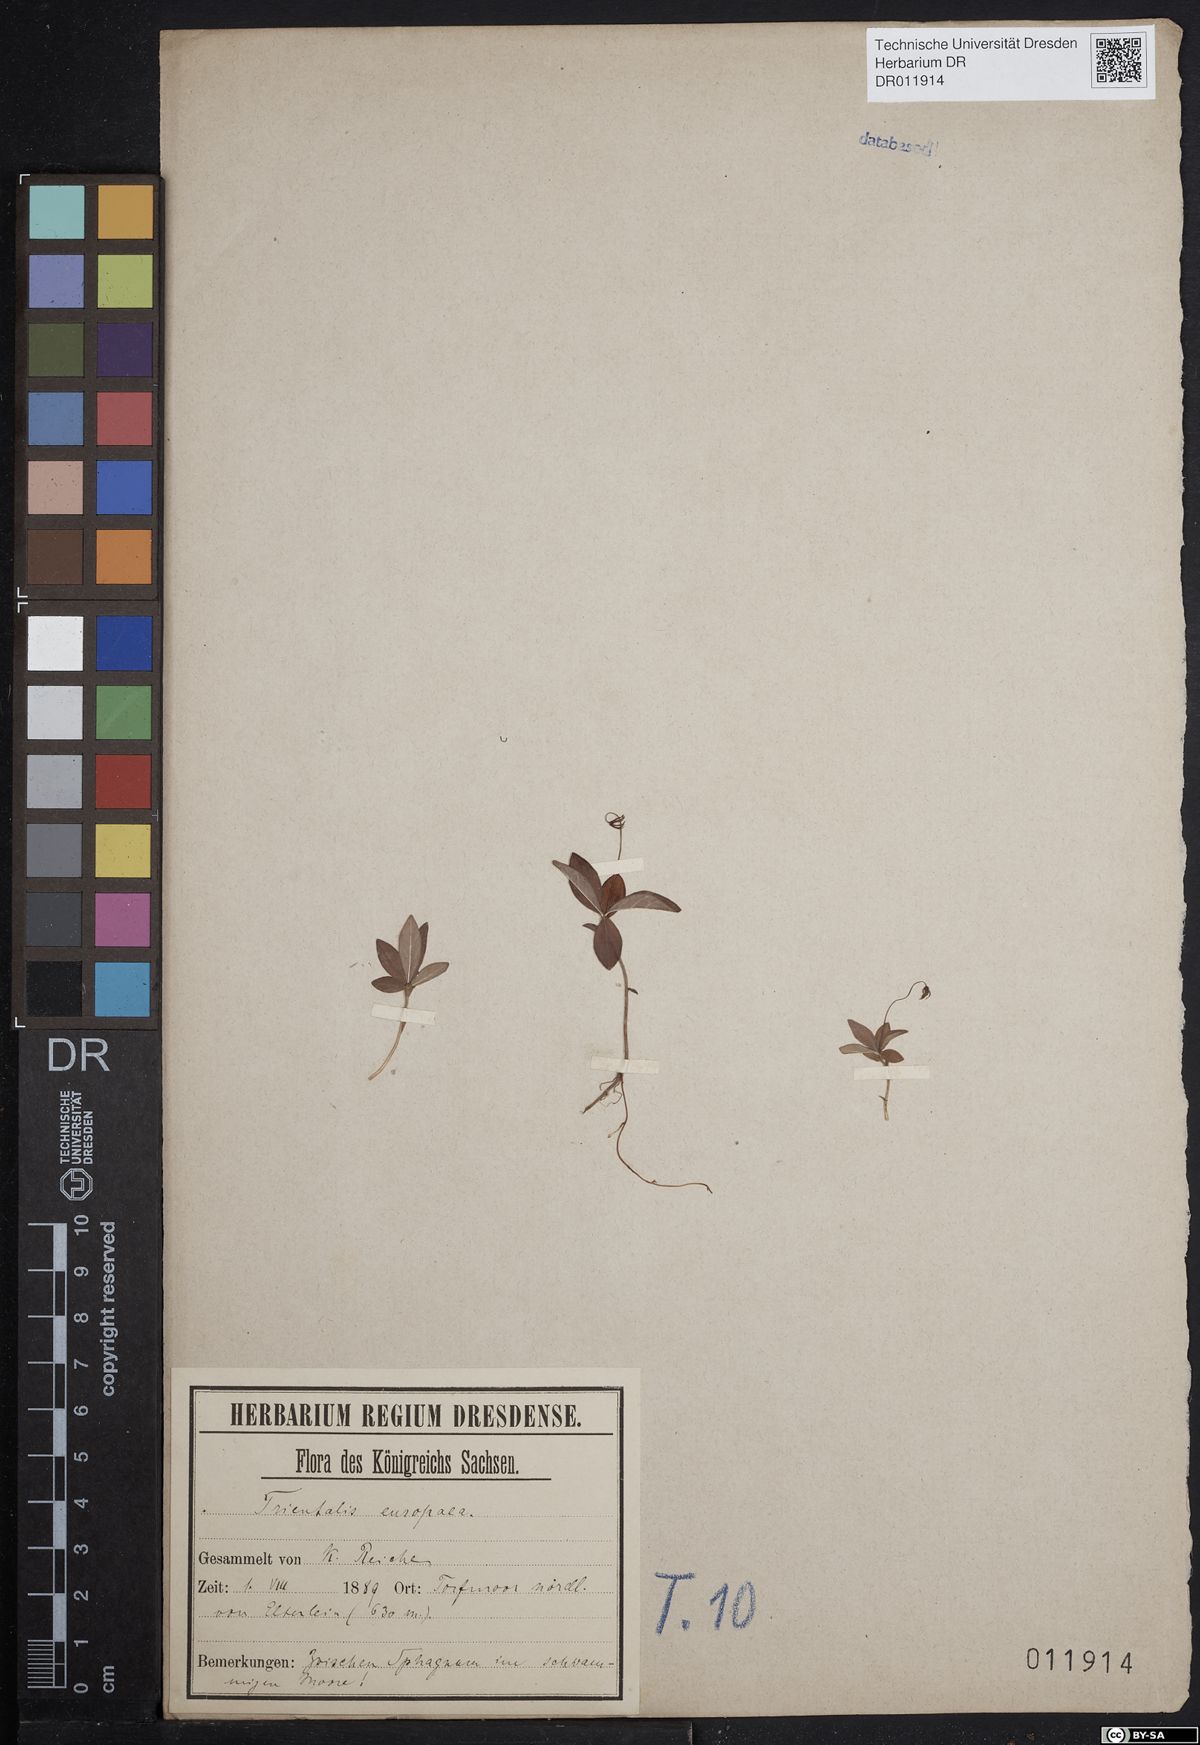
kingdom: Plantae
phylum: Tracheophyta
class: Magnoliopsida
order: Ericales
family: Primulaceae
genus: Lysimachia
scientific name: Lysimachia europaea
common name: Arctic starflower
